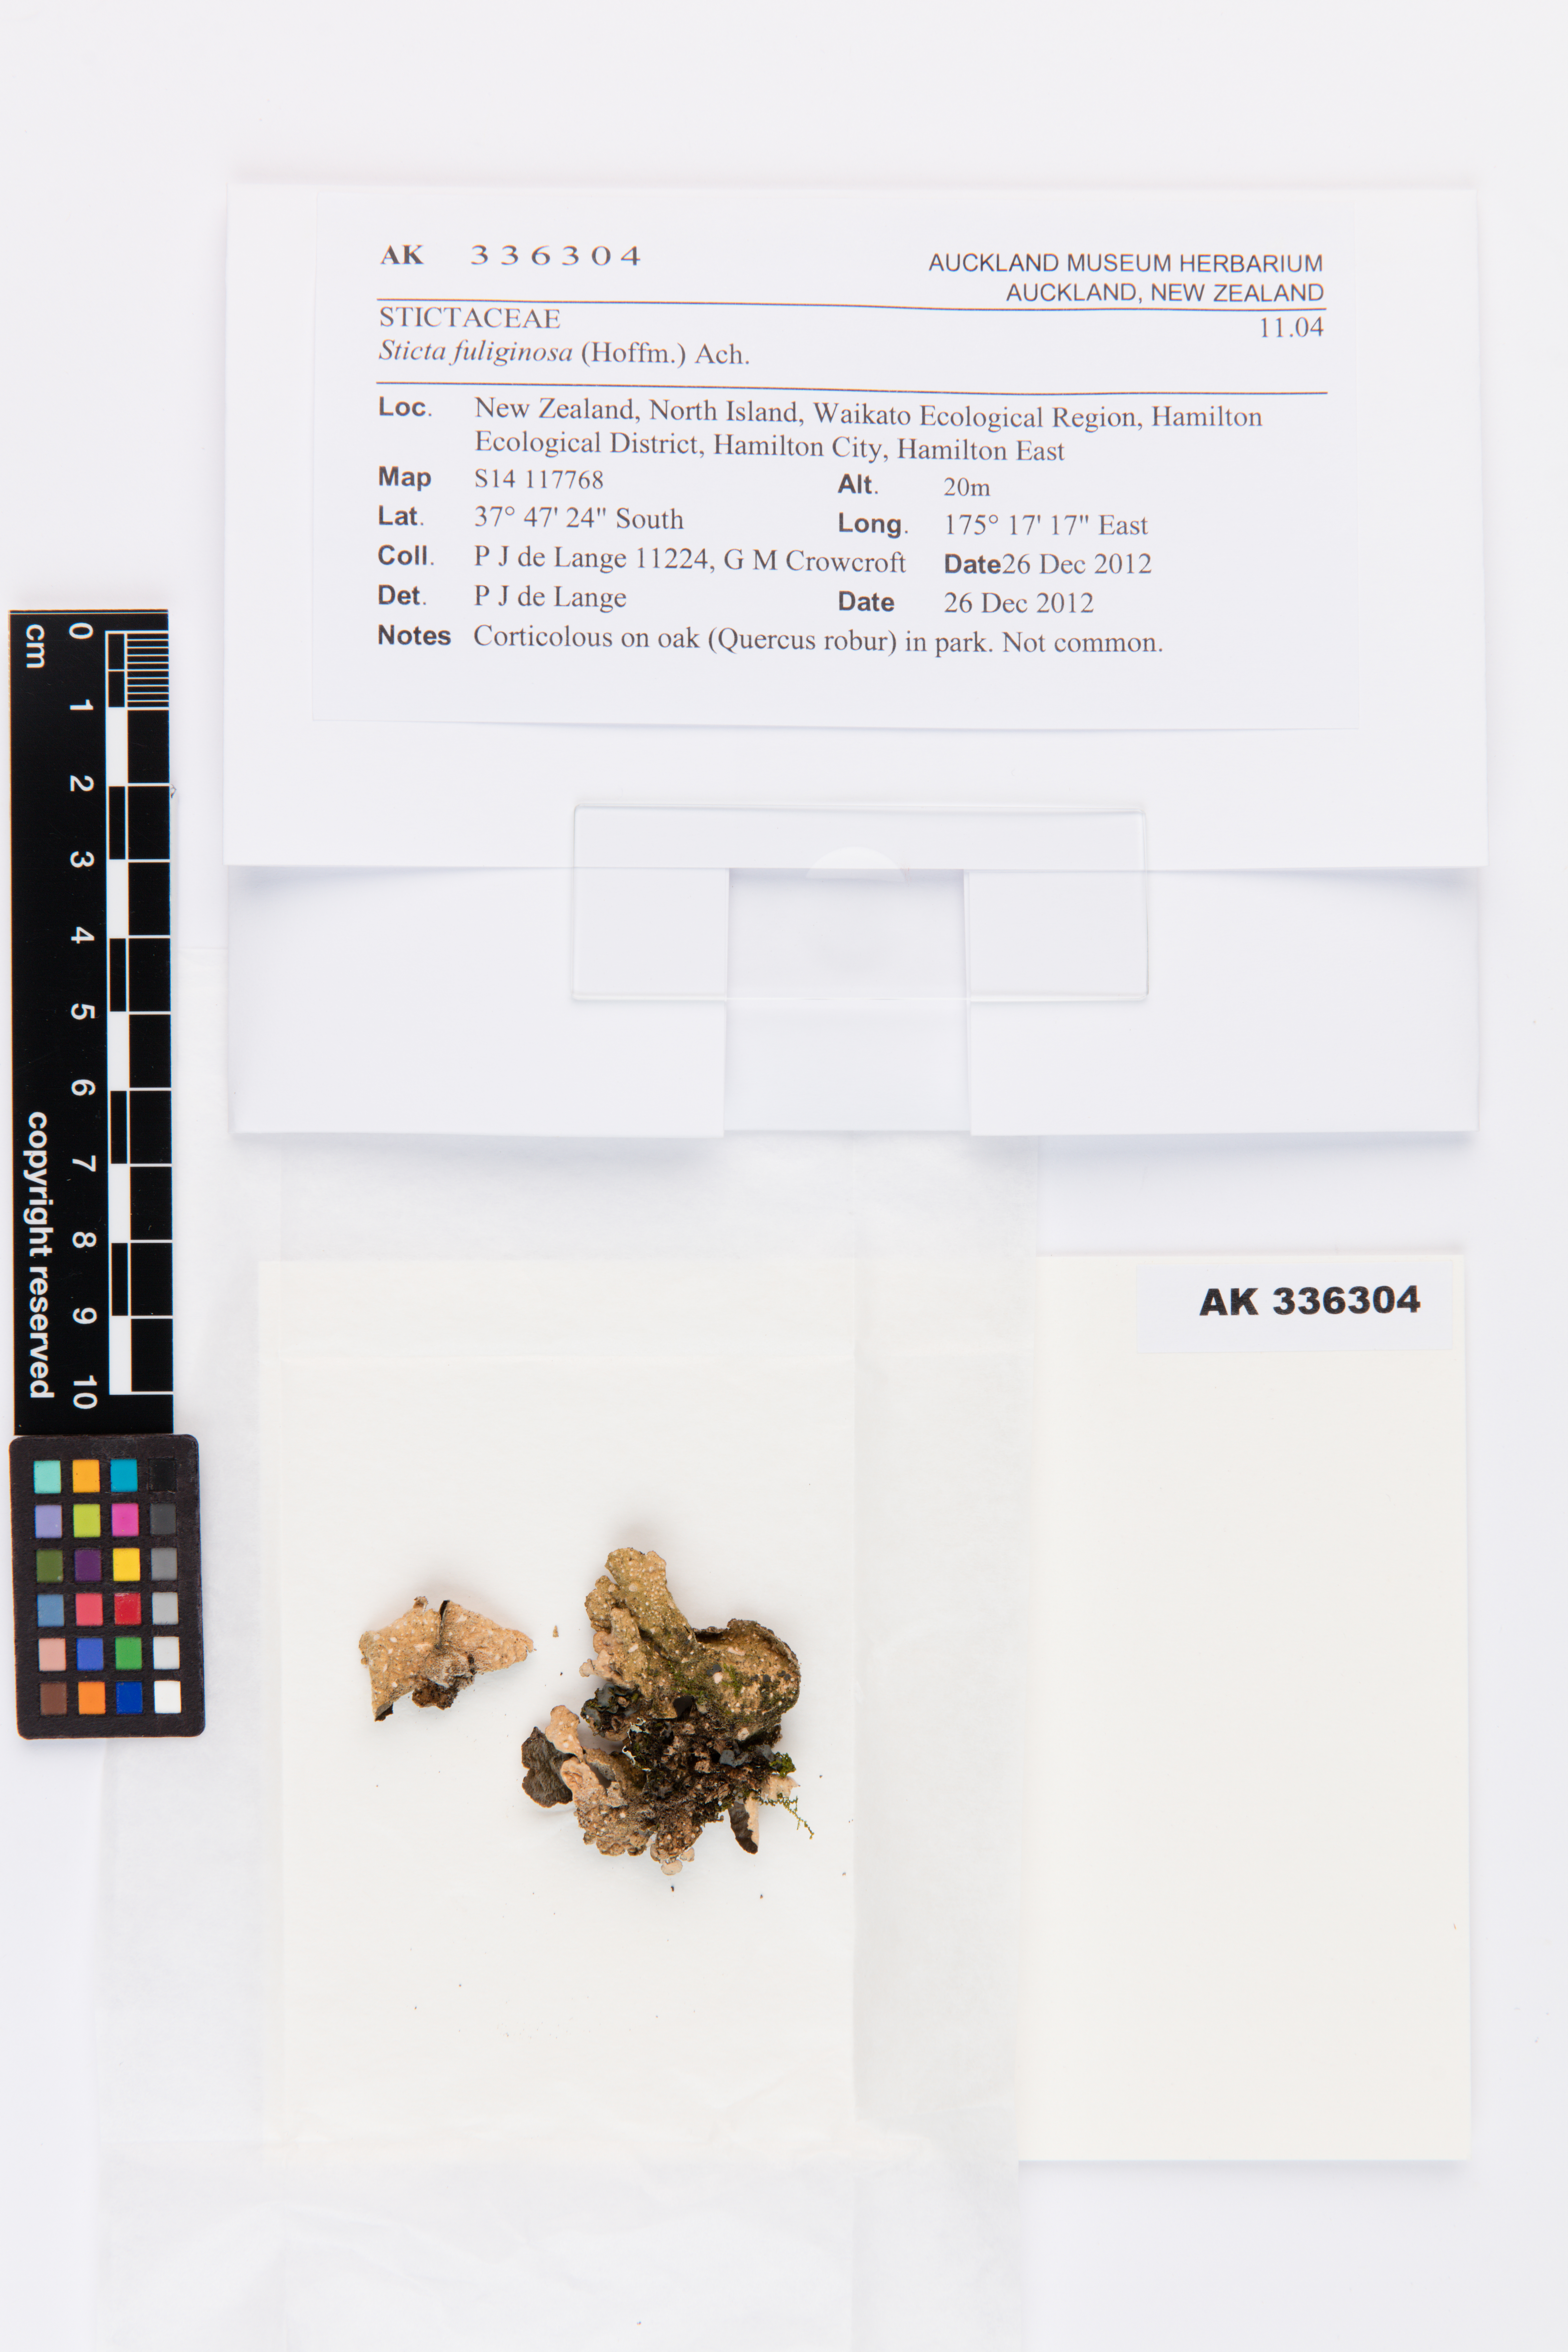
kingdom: Fungi
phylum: Ascomycota
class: Lecanoromycetes
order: Peltigerales
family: Lobariaceae
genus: Sticta
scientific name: Sticta fuliginosa
